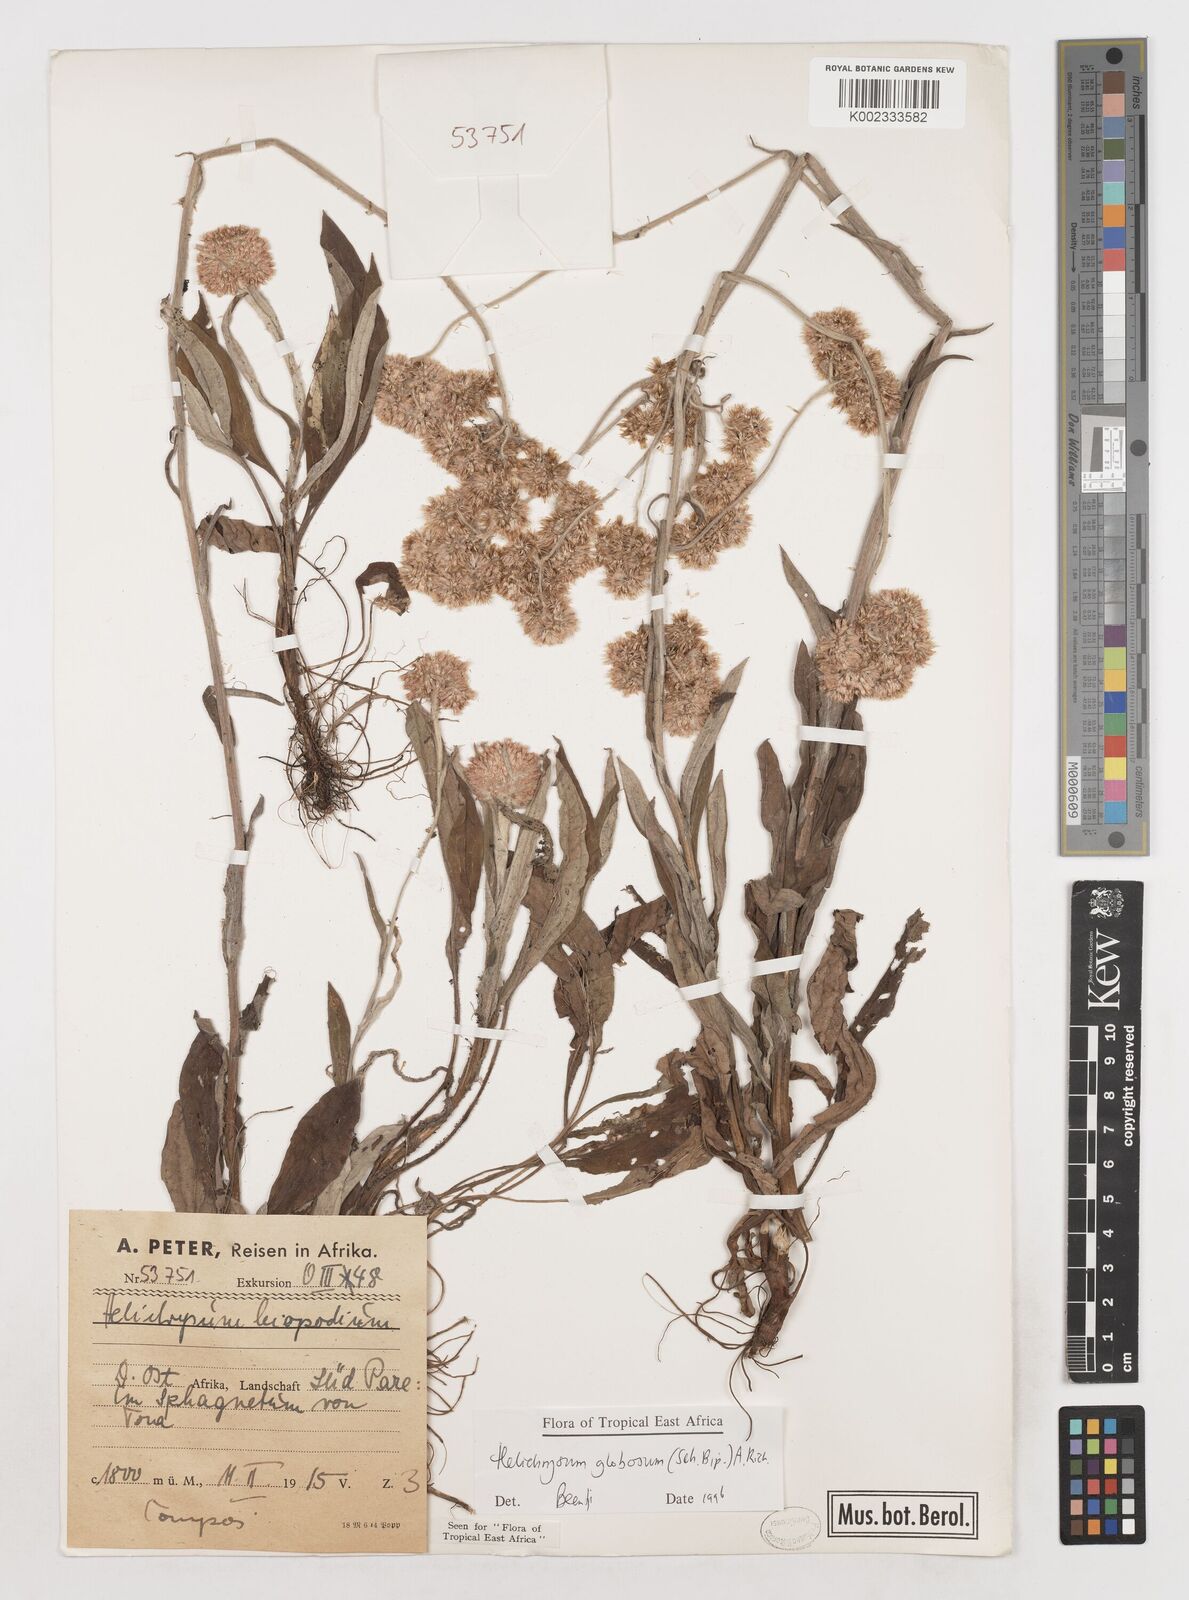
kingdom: Plantae
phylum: Tracheophyta
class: Magnoliopsida
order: Asterales
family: Asteraceae
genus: Helichrysum
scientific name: Helichrysum globosum
